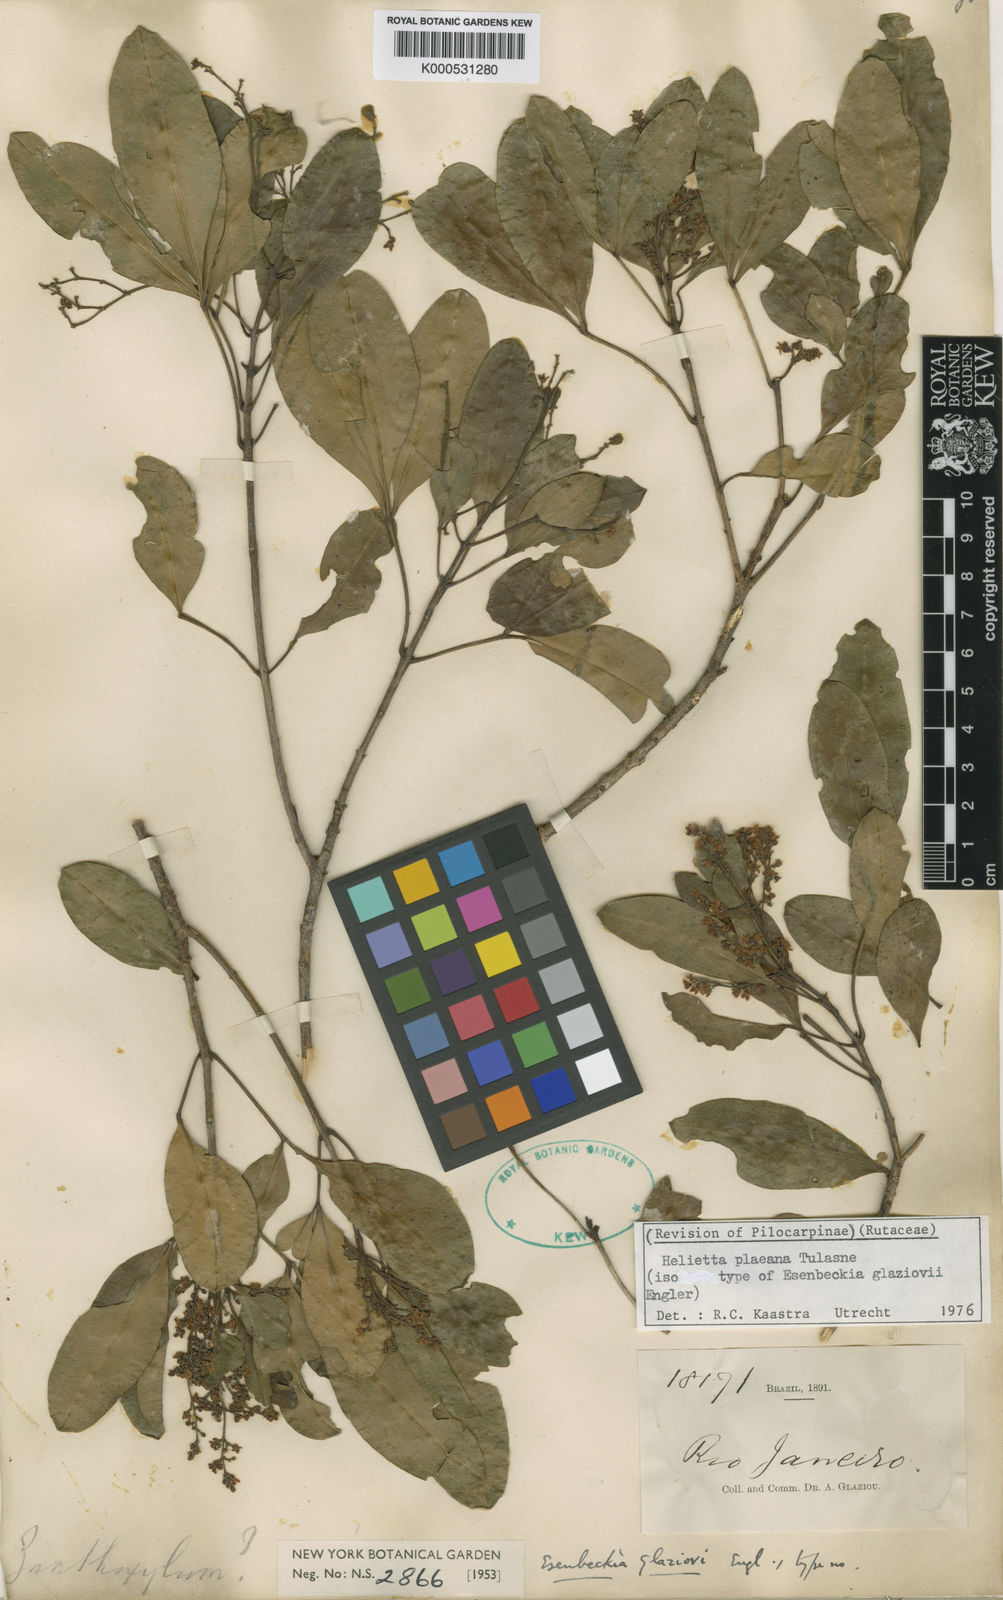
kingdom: Plantae
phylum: Tracheophyta
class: Magnoliopsida
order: Sapindales
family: Rutaceae
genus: Helietta
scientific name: Helietta glaziovii
